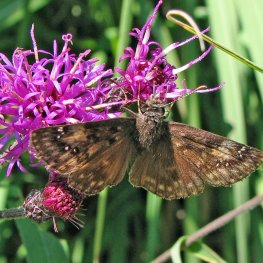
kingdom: Animalia
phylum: Arthropoda
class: Insecta
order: Lepidoptera
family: Hesperiidae
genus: Gesta
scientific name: Gesta
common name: Horace's Duskywing
